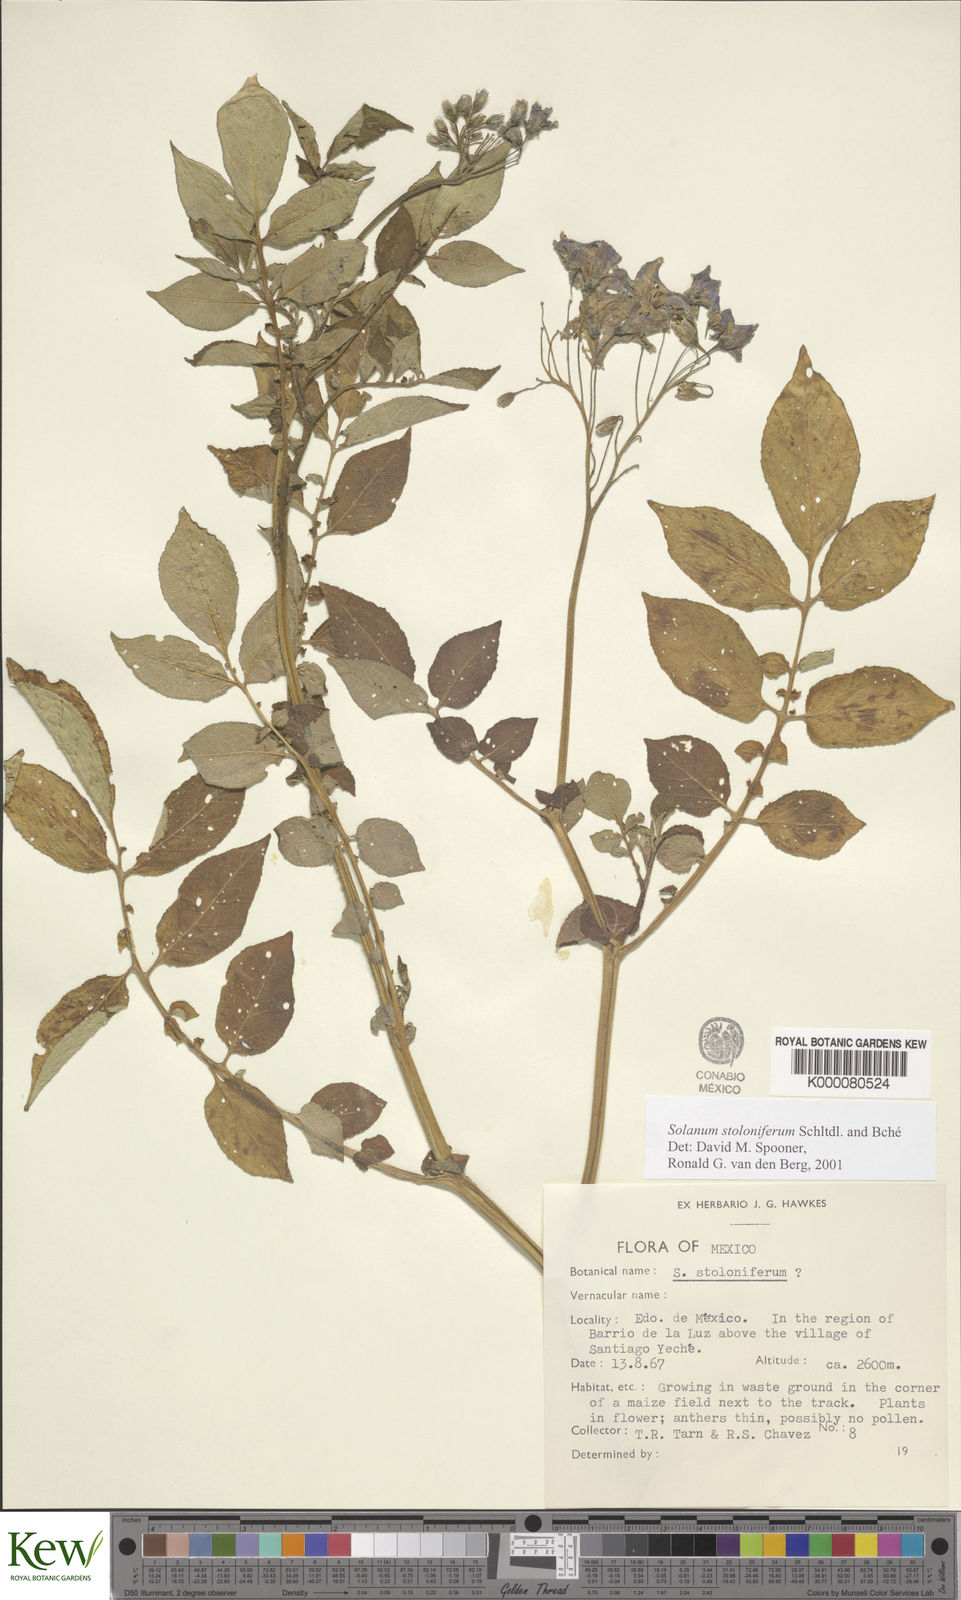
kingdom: Plantae
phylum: Tracheophyta
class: Magnoliopsida
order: Solanales
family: Solanaceae
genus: Solanum
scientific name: Solanum stoloniferum
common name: Fendler's nighshade
